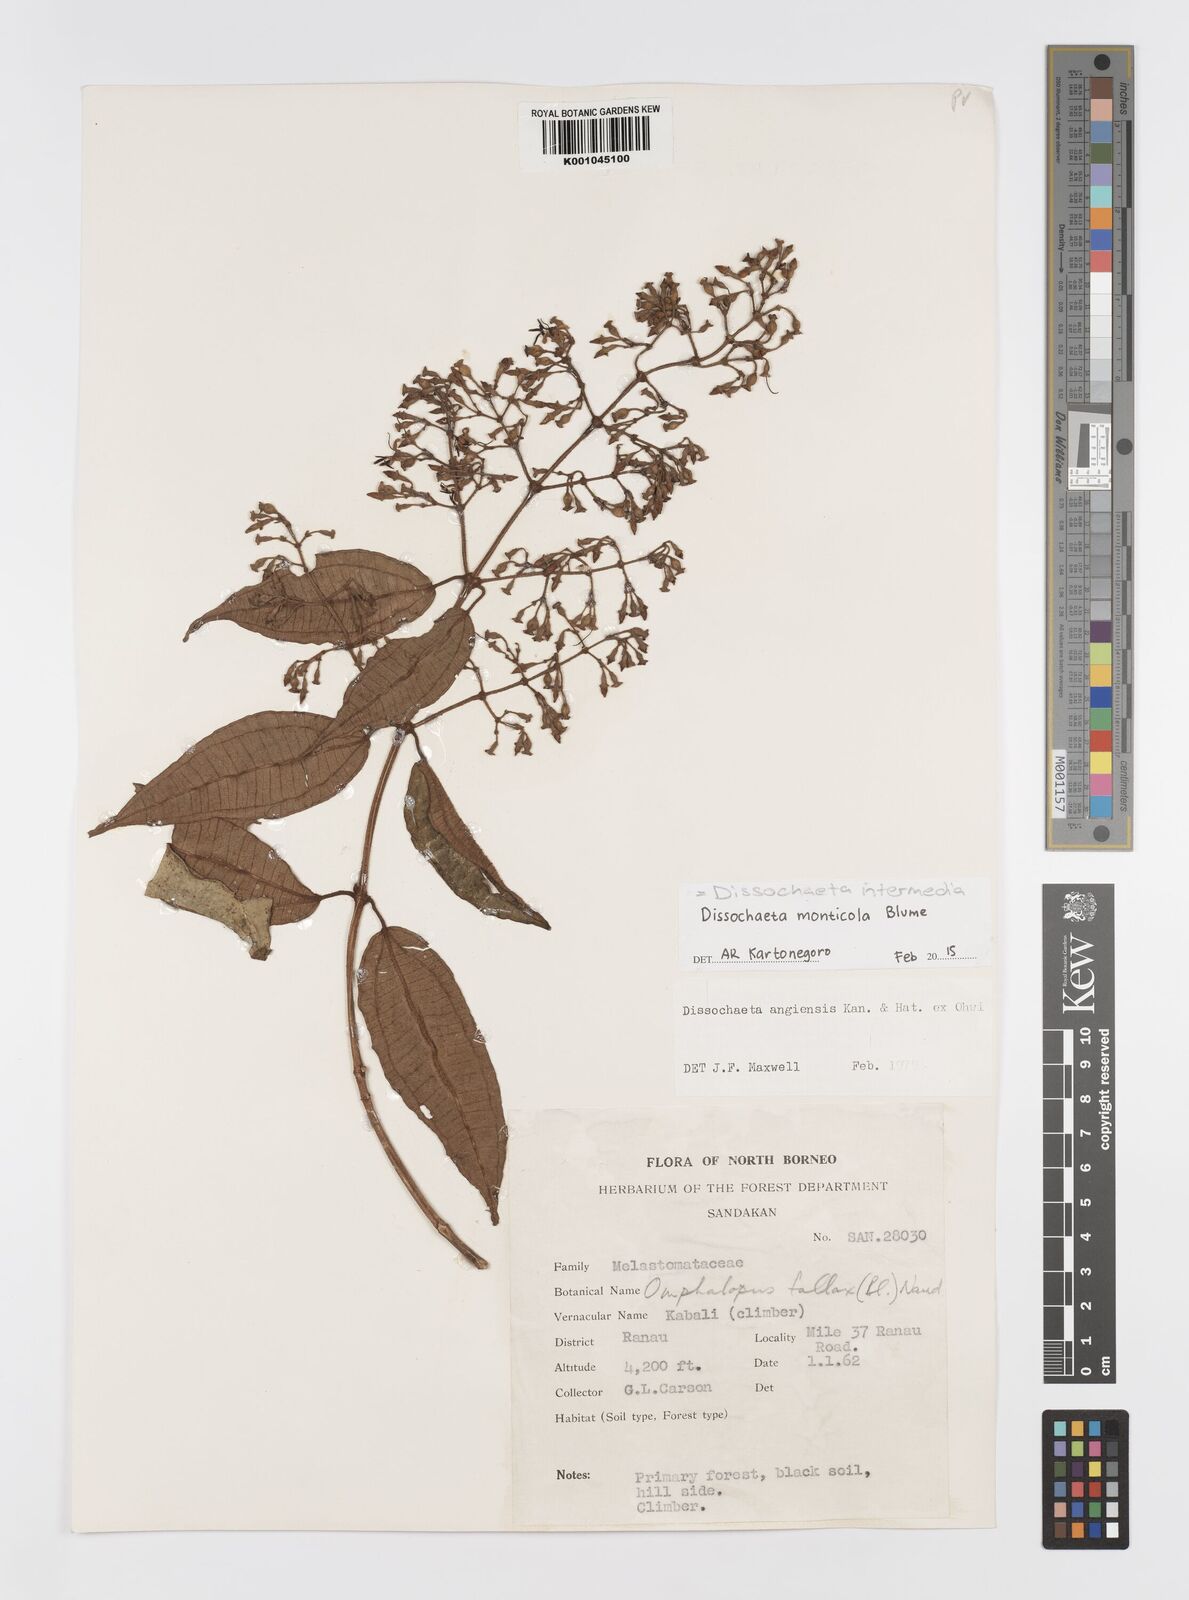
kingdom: Plantae
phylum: Tracheophyta
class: Magnoliopsida
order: Myrtales
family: Melastomataceae
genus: Dissochaeta
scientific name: Dissochaeta intermedia
